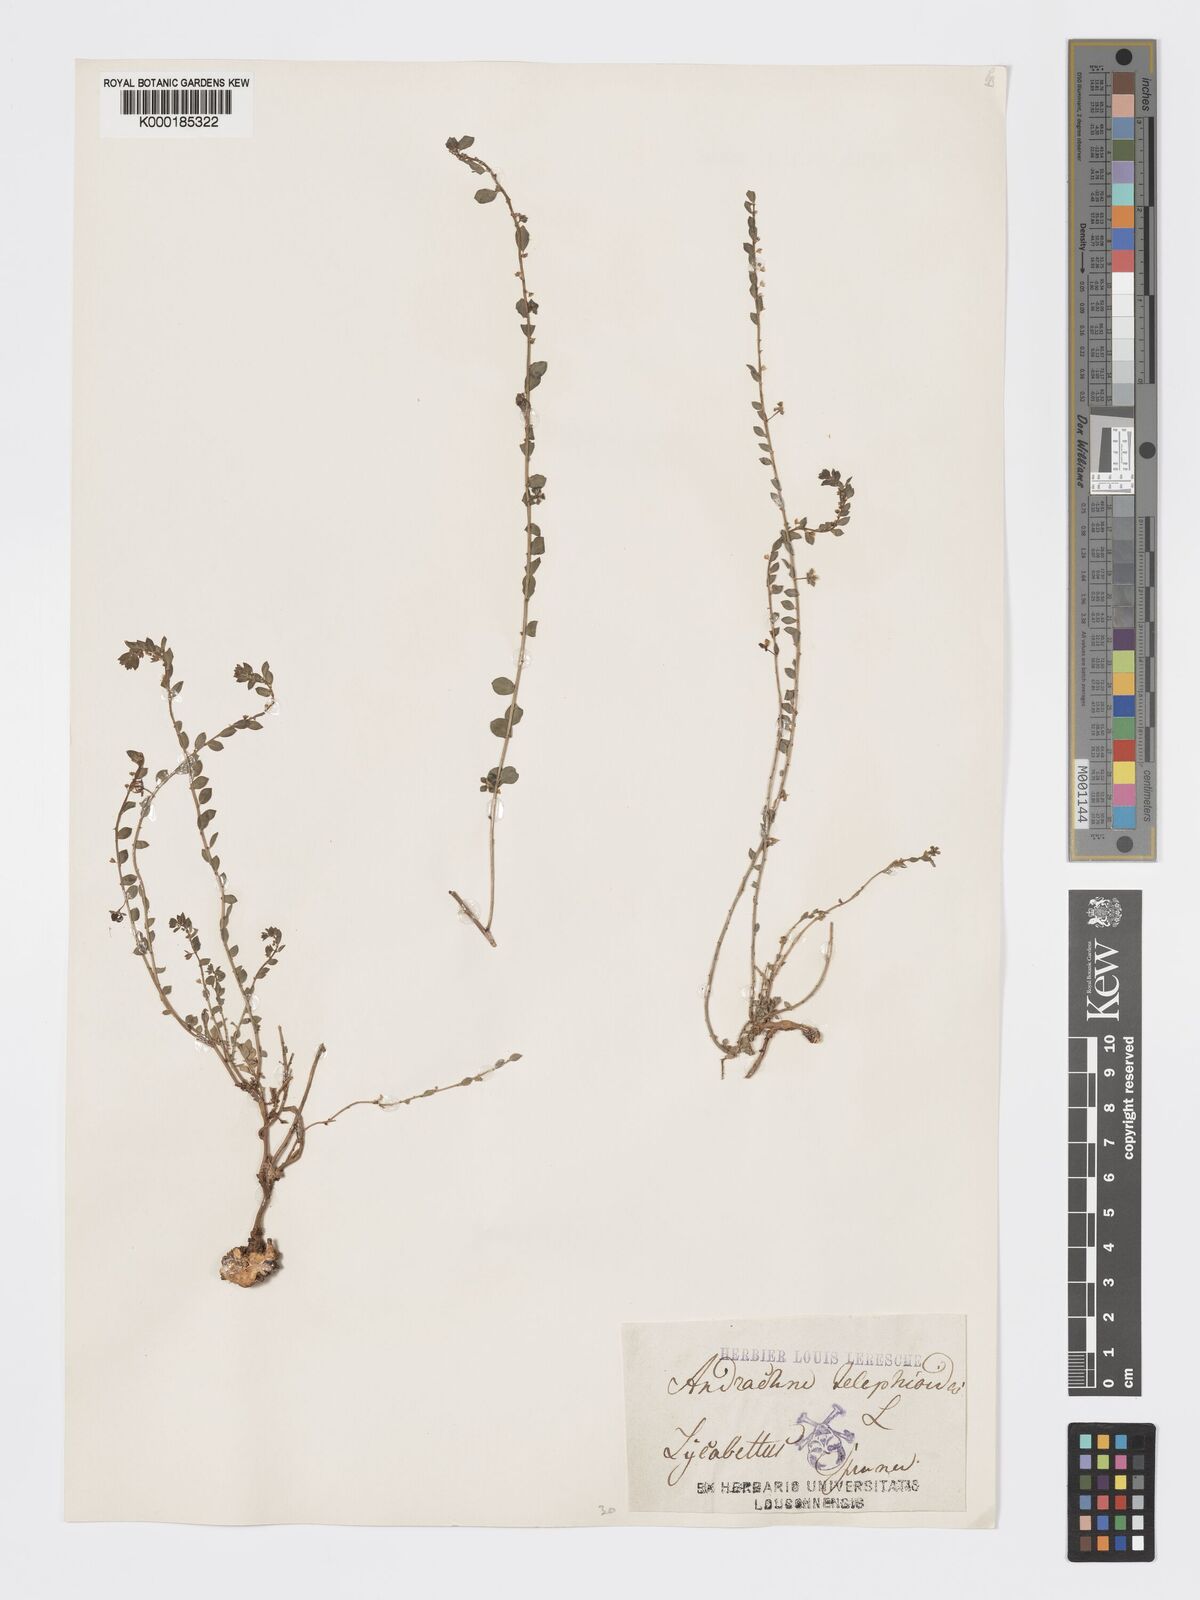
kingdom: Plantae
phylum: Tracheophyta
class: Magnoliopsida
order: Malpighiales
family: Phyllanthaceae
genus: Andrachne
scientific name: Andrachne telephioides
